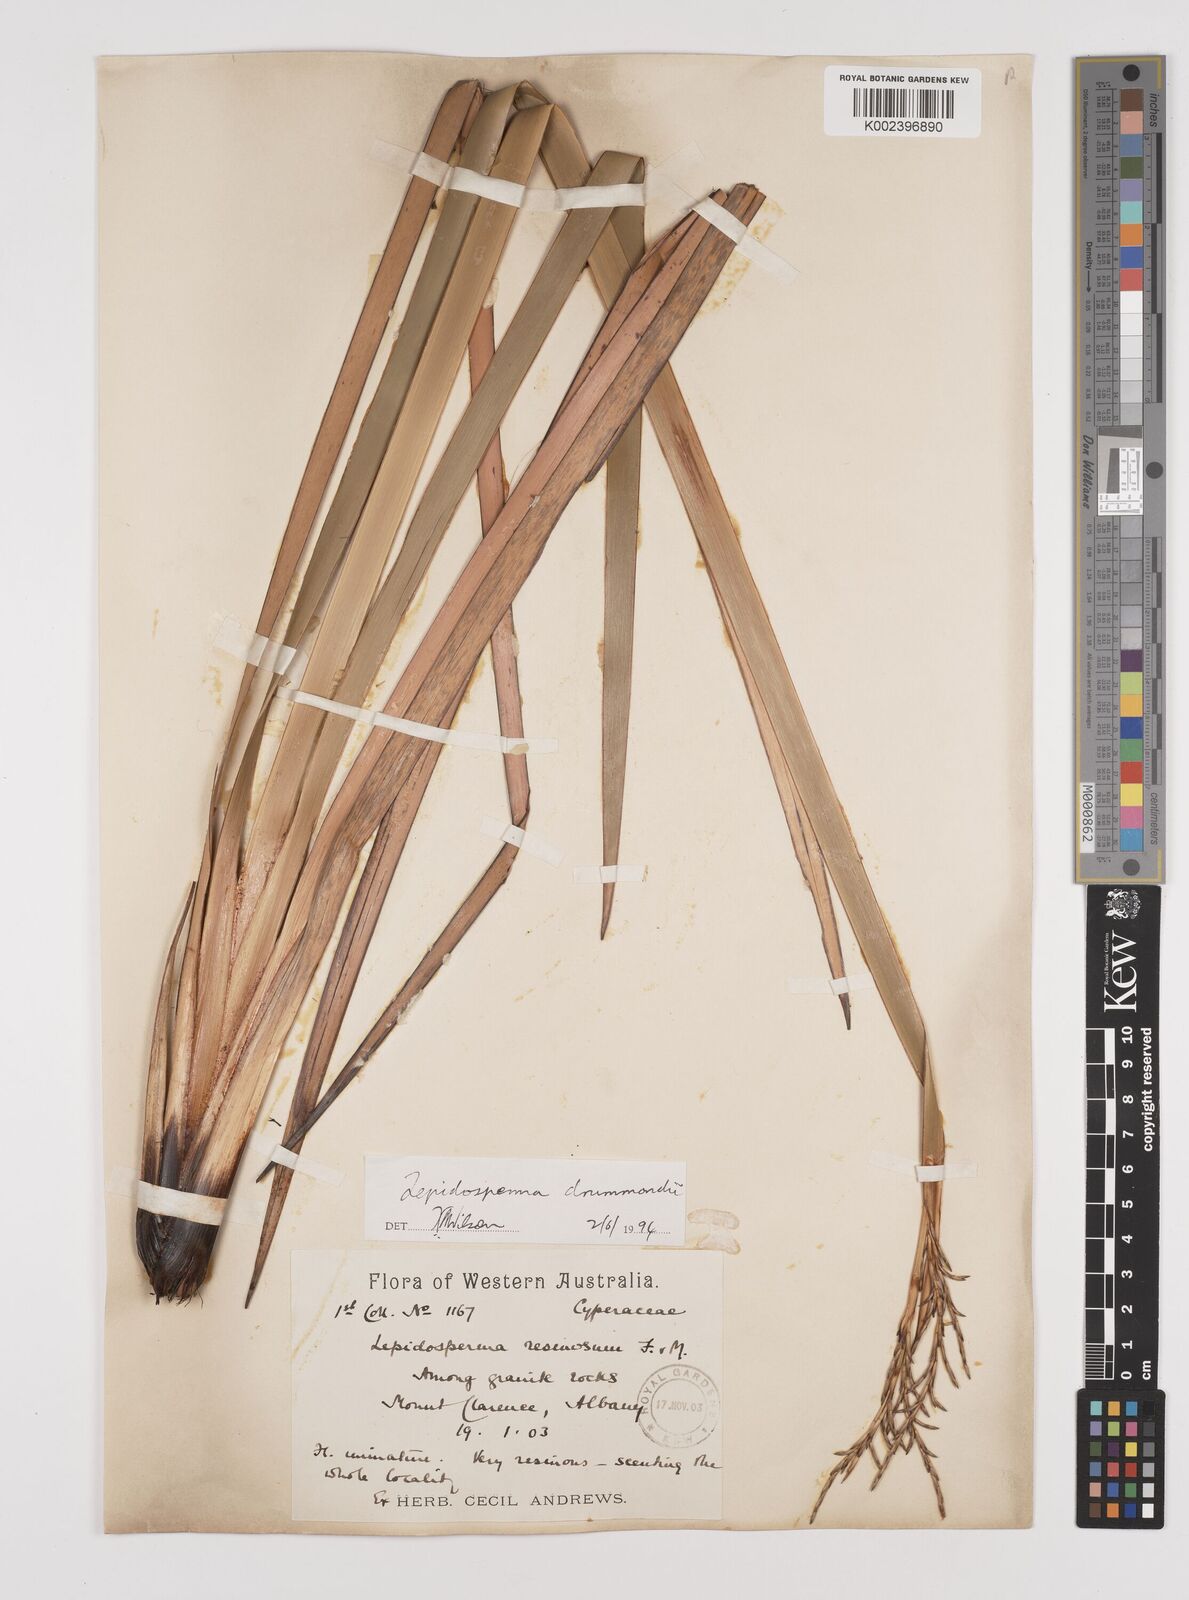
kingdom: Plantae
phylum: Tracheophyta
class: Liliopsida
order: Poales
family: Cyperaceae
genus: Lepidosperma
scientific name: Lepidosperma drummondii
